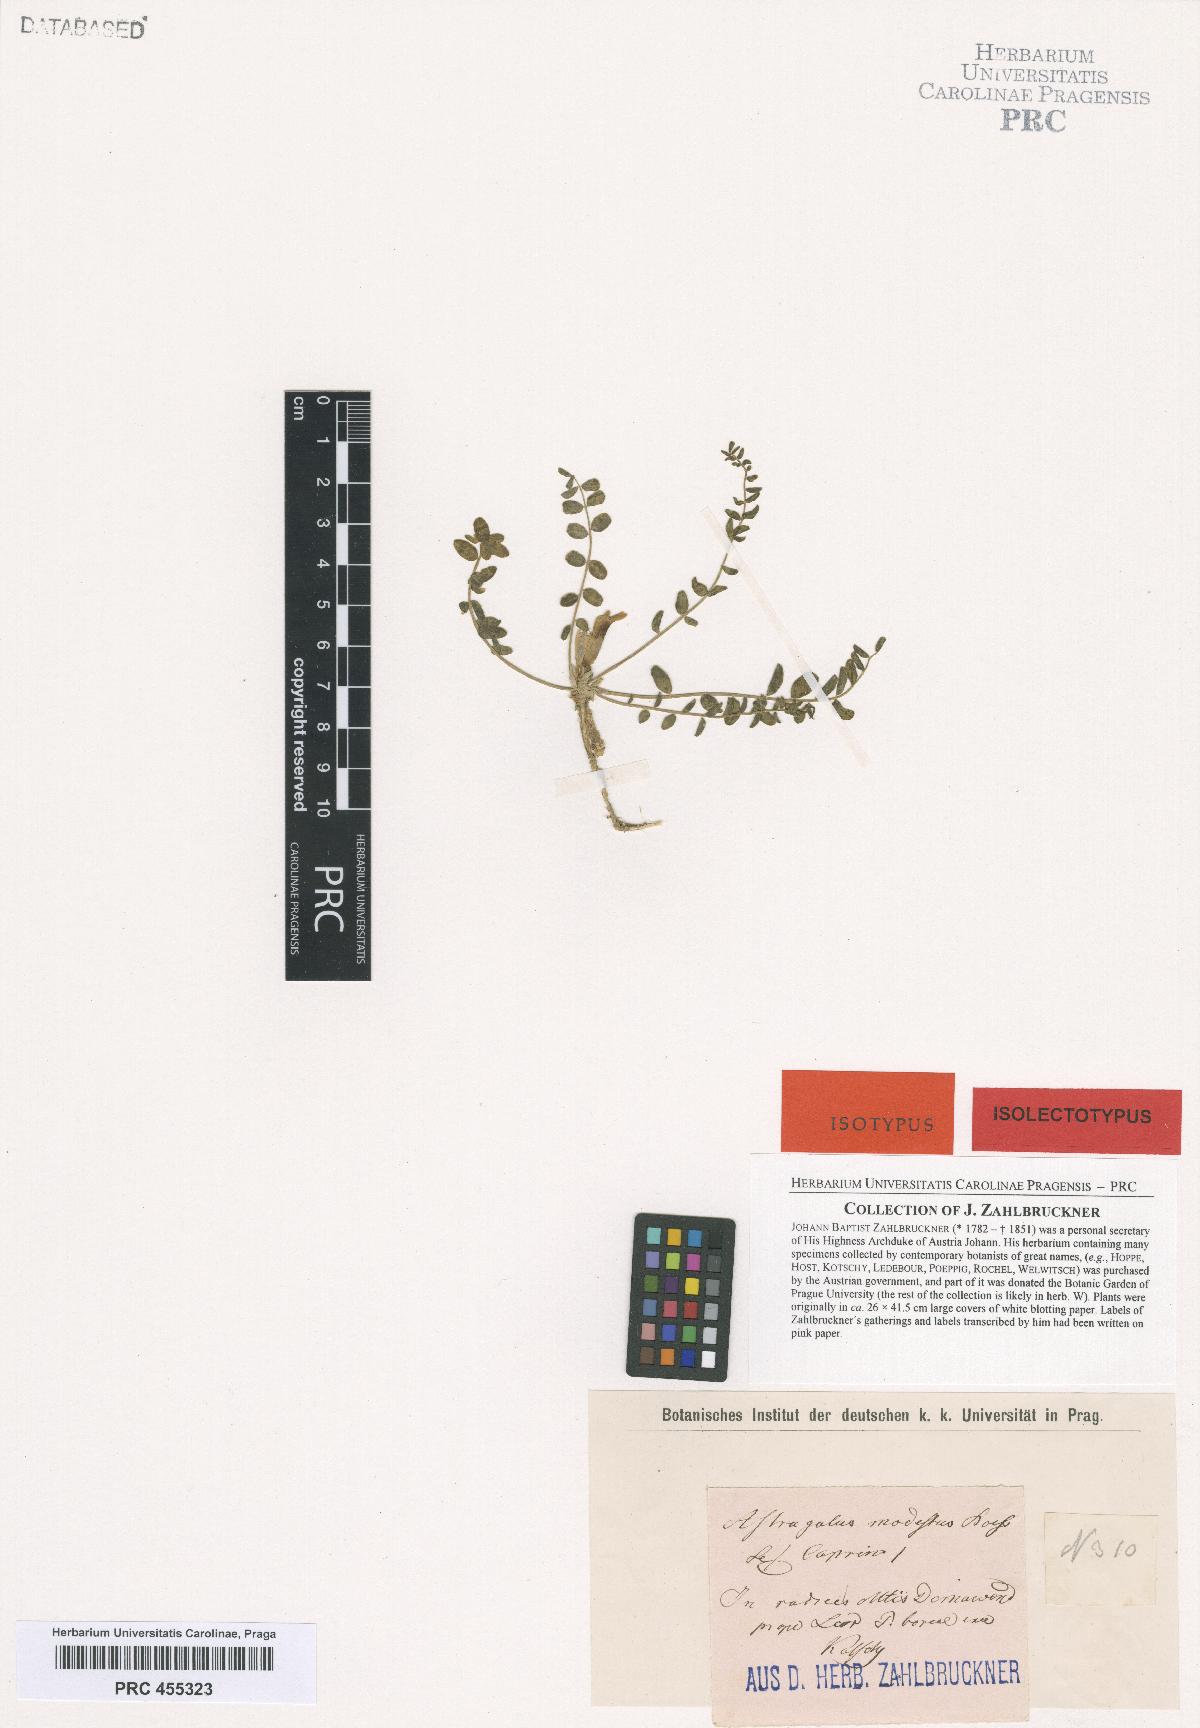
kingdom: Plantae
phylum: Tracheophyta
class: Magnoliopsida
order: Fabales
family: Fabaceae
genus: Astragalus
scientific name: Astragalus modestus
